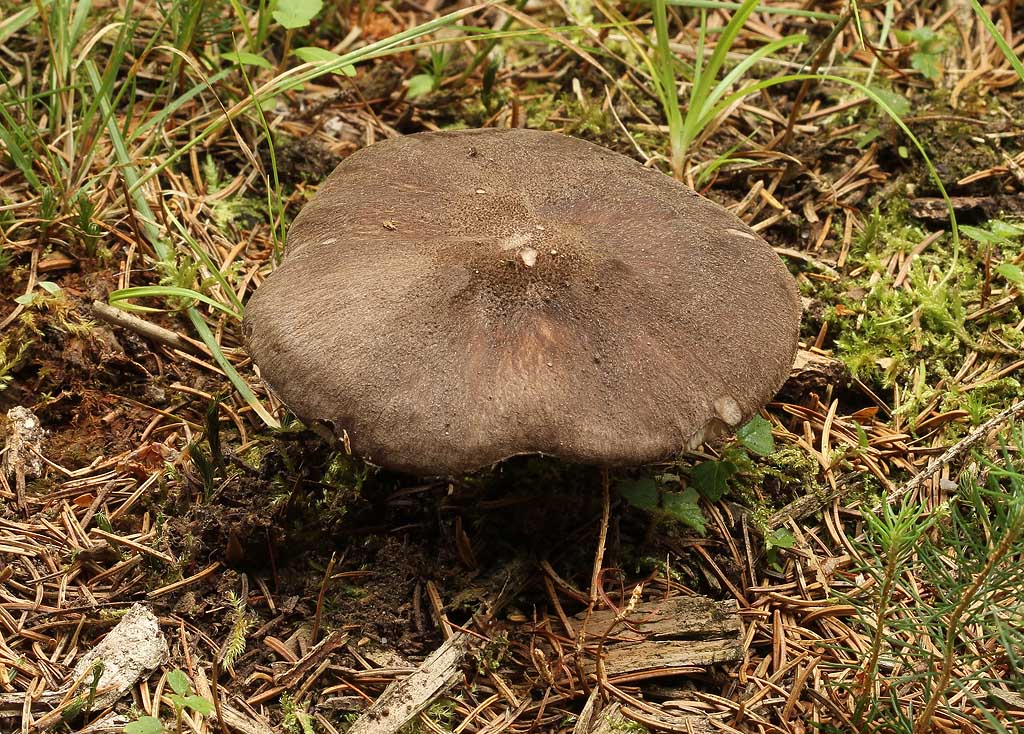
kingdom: Fungi
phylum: Basidiomycota
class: Agaricomycetes
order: Agaricales
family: Pluteaceae
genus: Pluteus
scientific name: Pluteus atromarginatus
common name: sortrandet skærmhat
